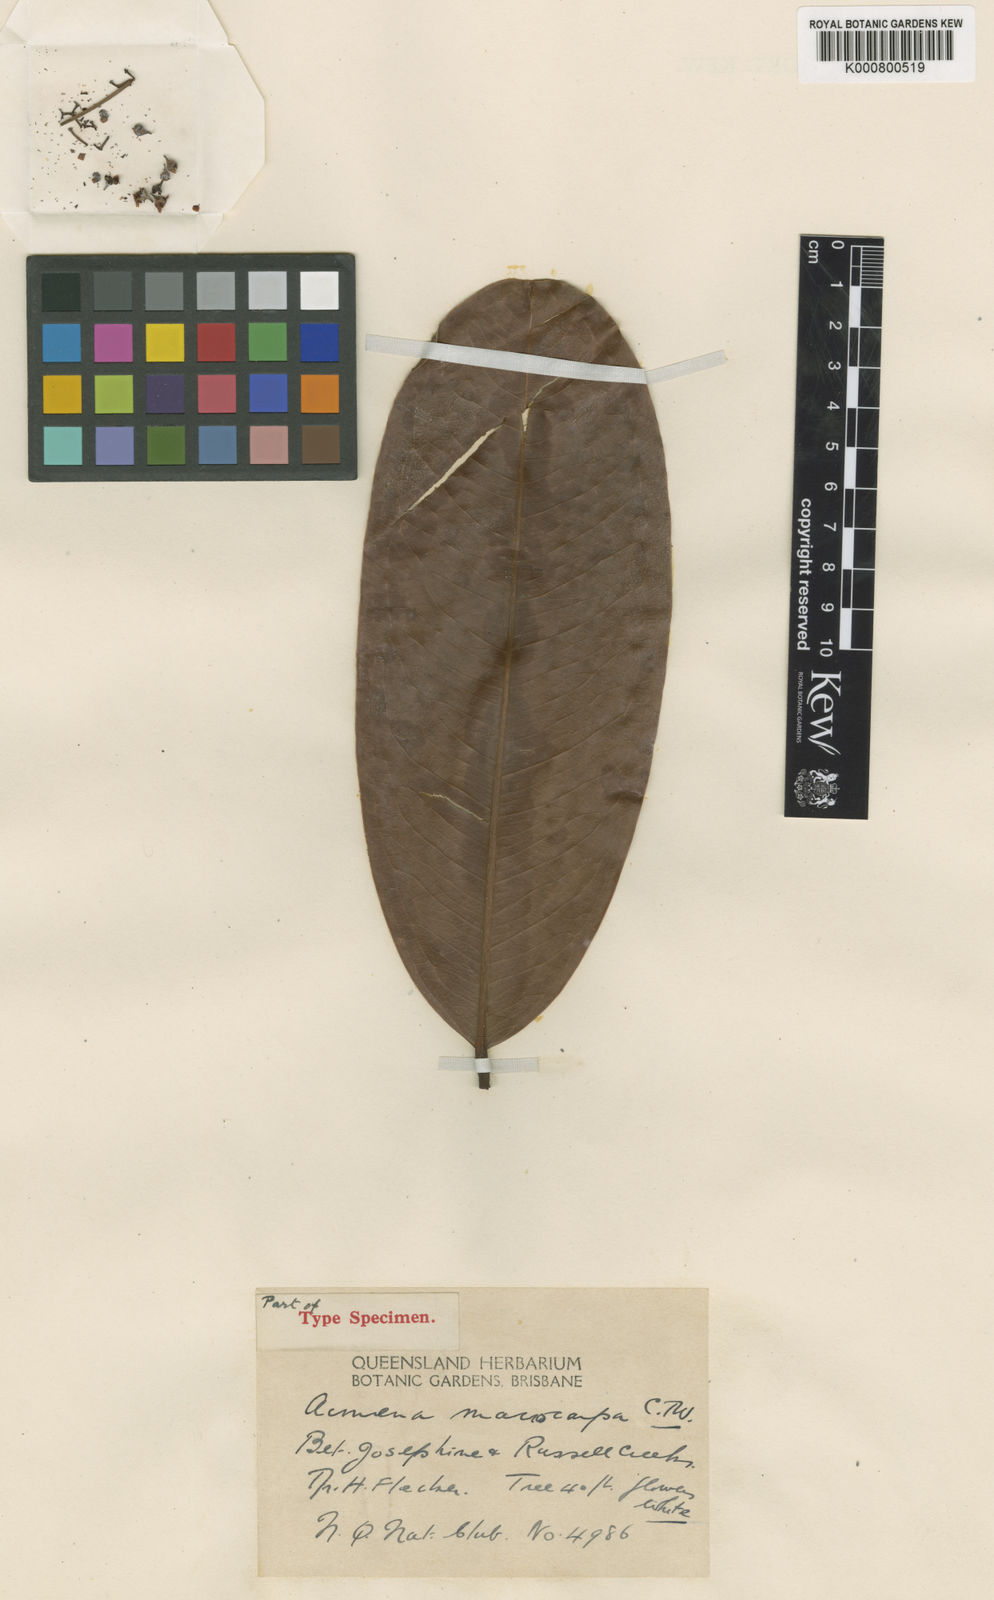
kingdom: Plantae
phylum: Tracheophyta
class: Magnoliopsida
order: Myrtales
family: Myrtaceae
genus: Syzygium
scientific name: Syzygium graveolens
